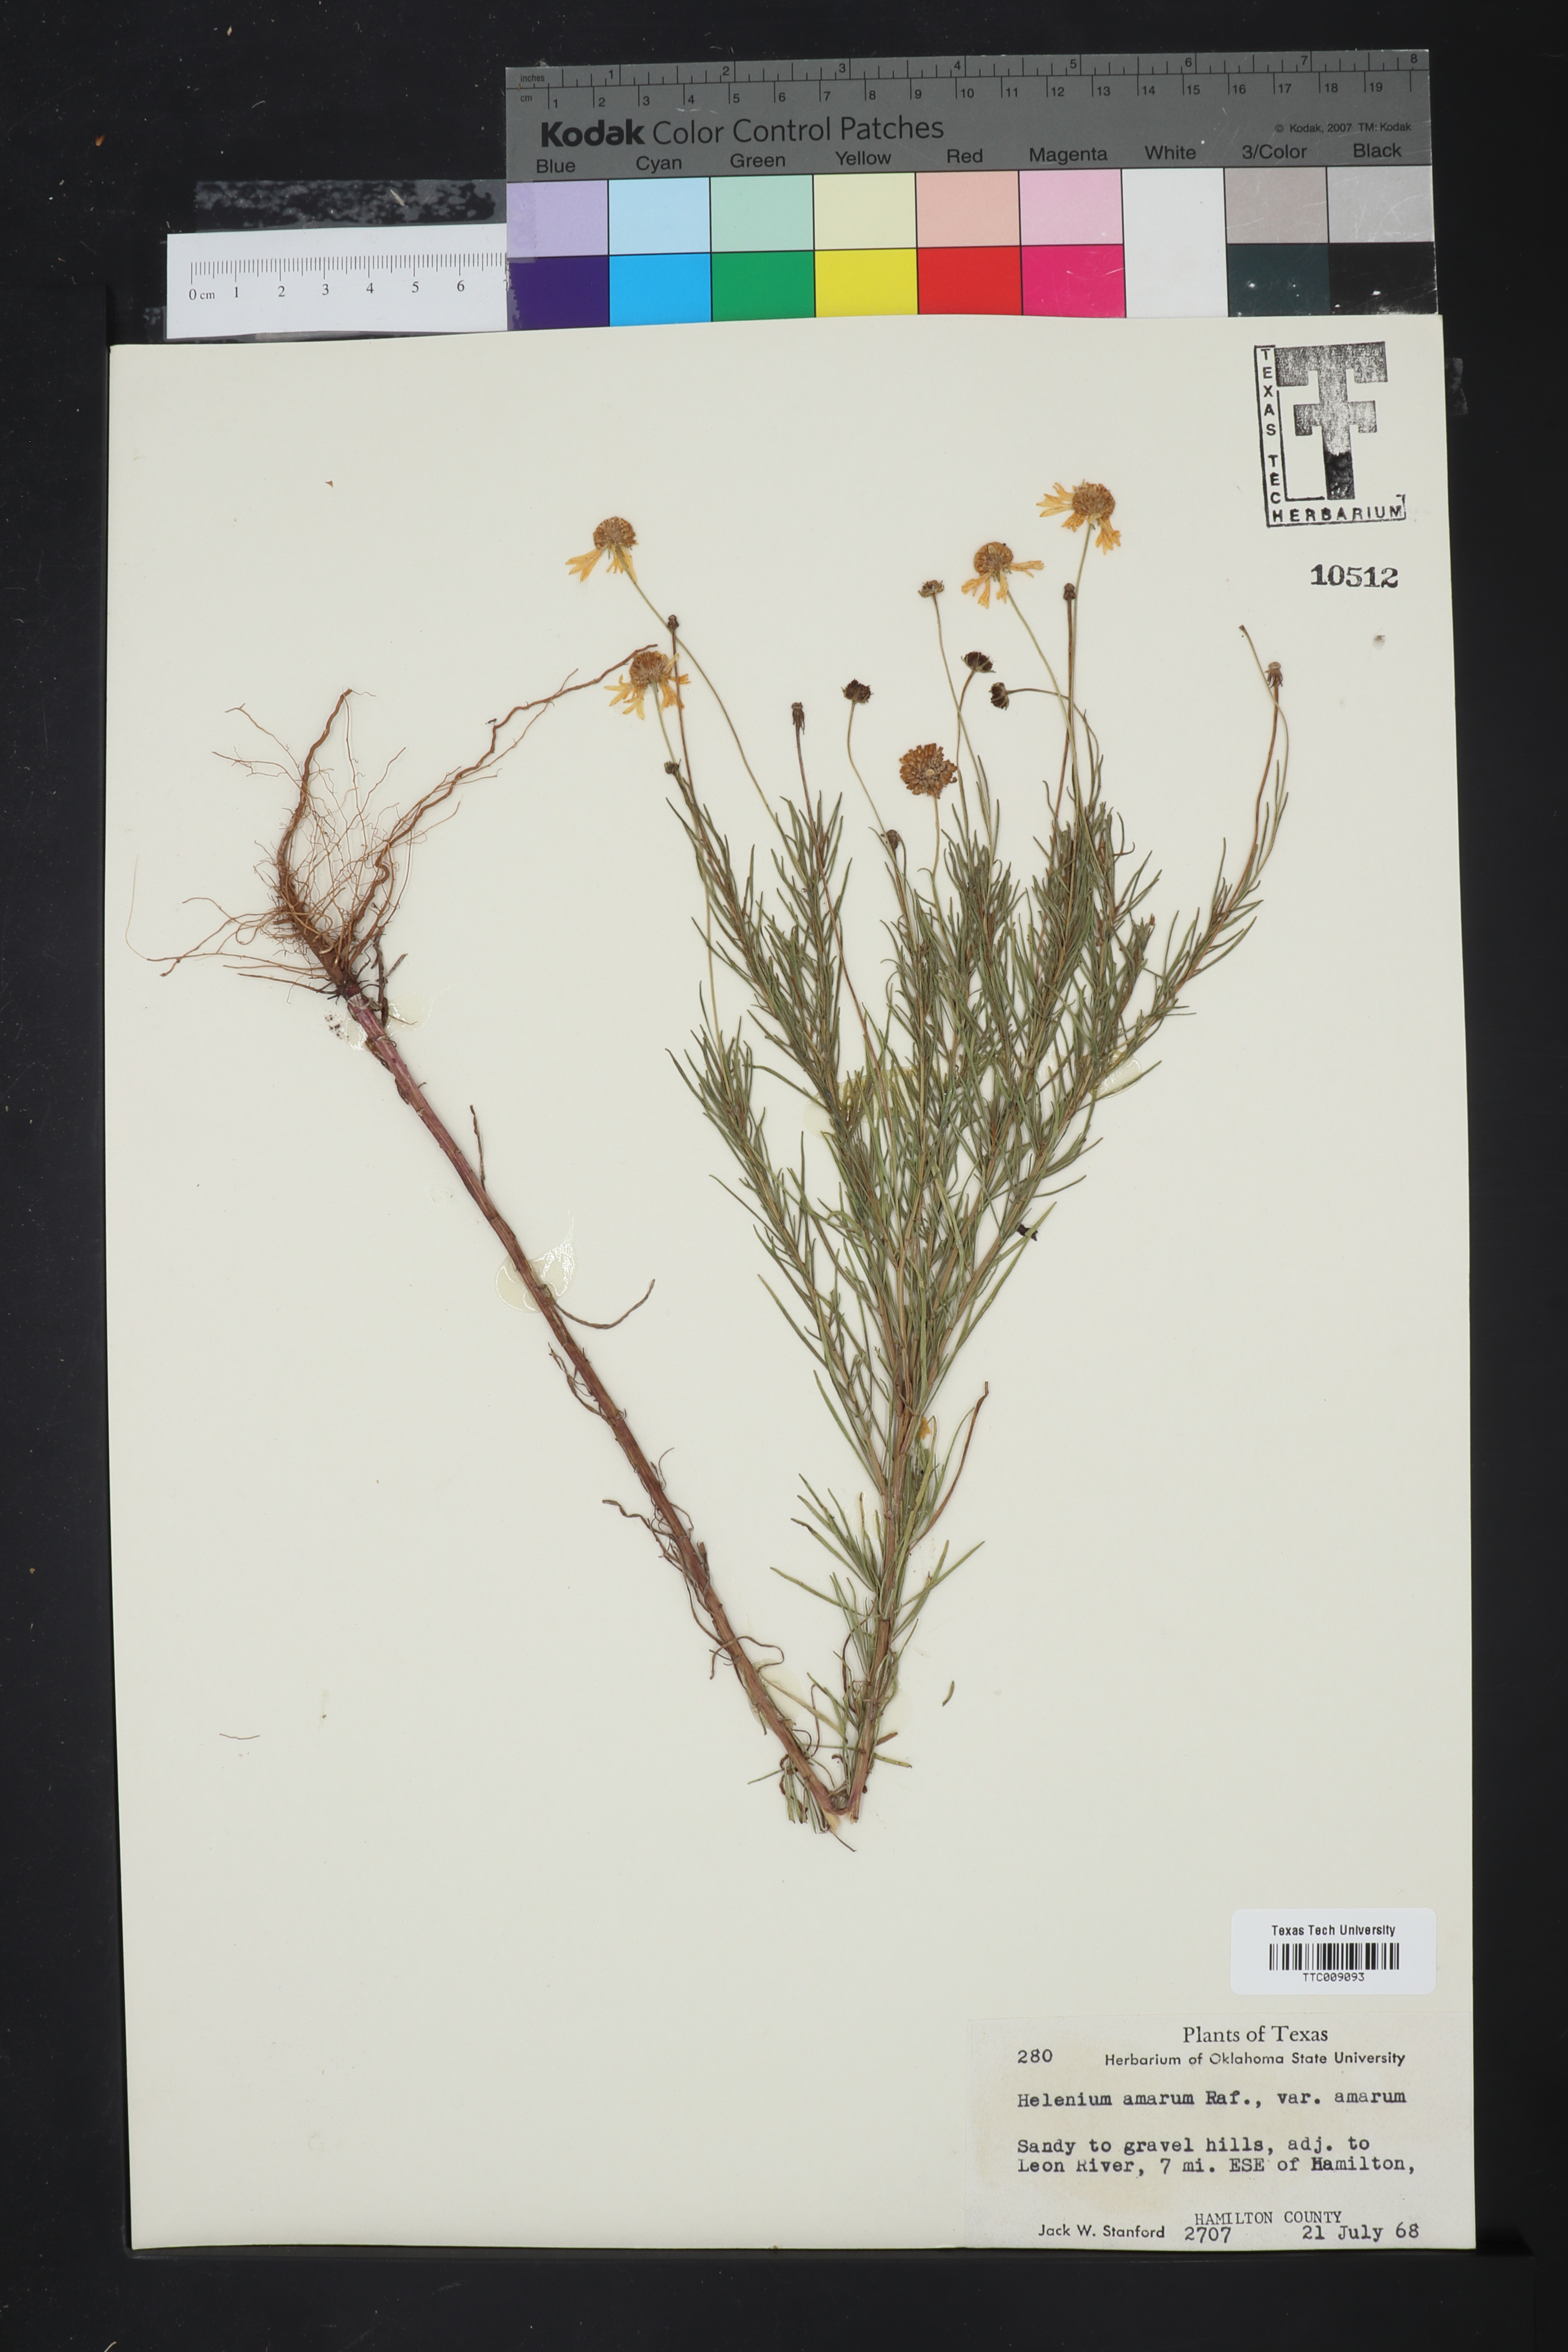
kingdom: Plantae
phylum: Tracheophyta
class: Magnoliopsida
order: Asterales
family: Asteraceae
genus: Helenium
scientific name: Helenium amarum
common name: Bitter sneezeweed
